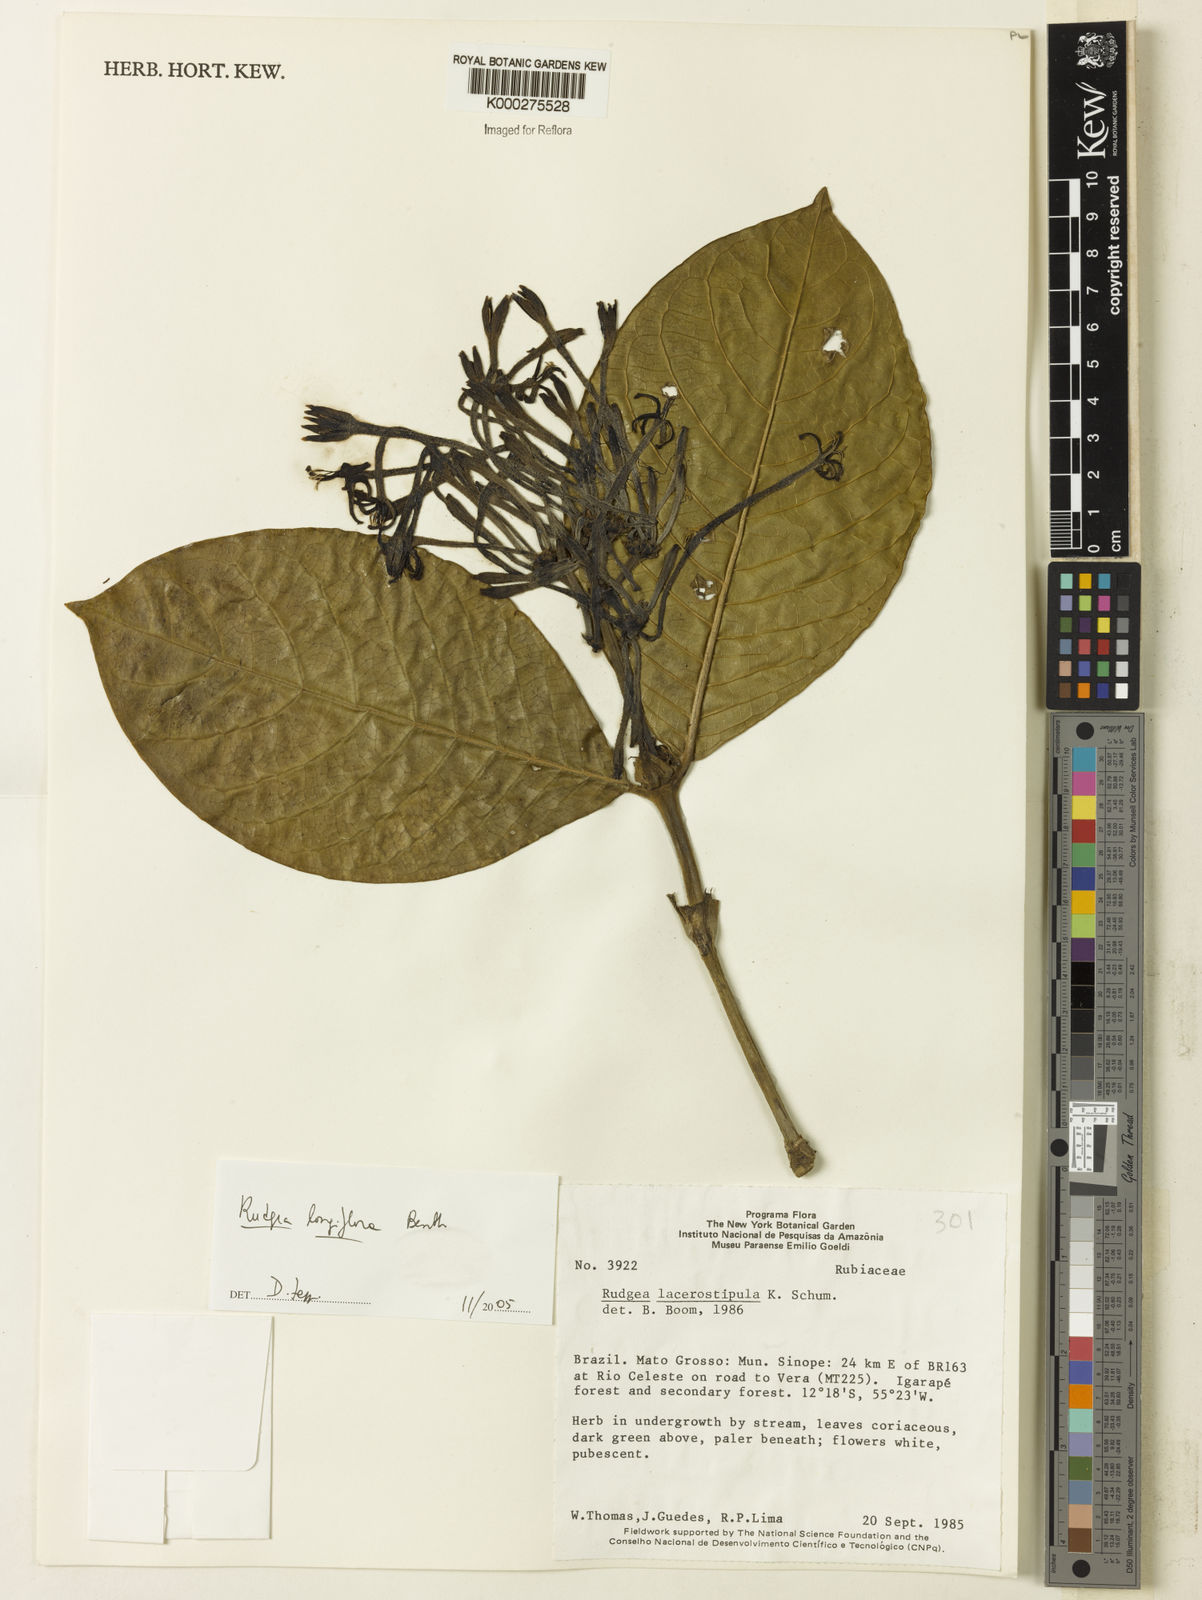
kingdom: Plantae
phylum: Tracheophyta
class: Magnoliopsida
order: Gentianales
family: Rubiaceae
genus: Rudgea
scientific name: Rudgea longiflora
